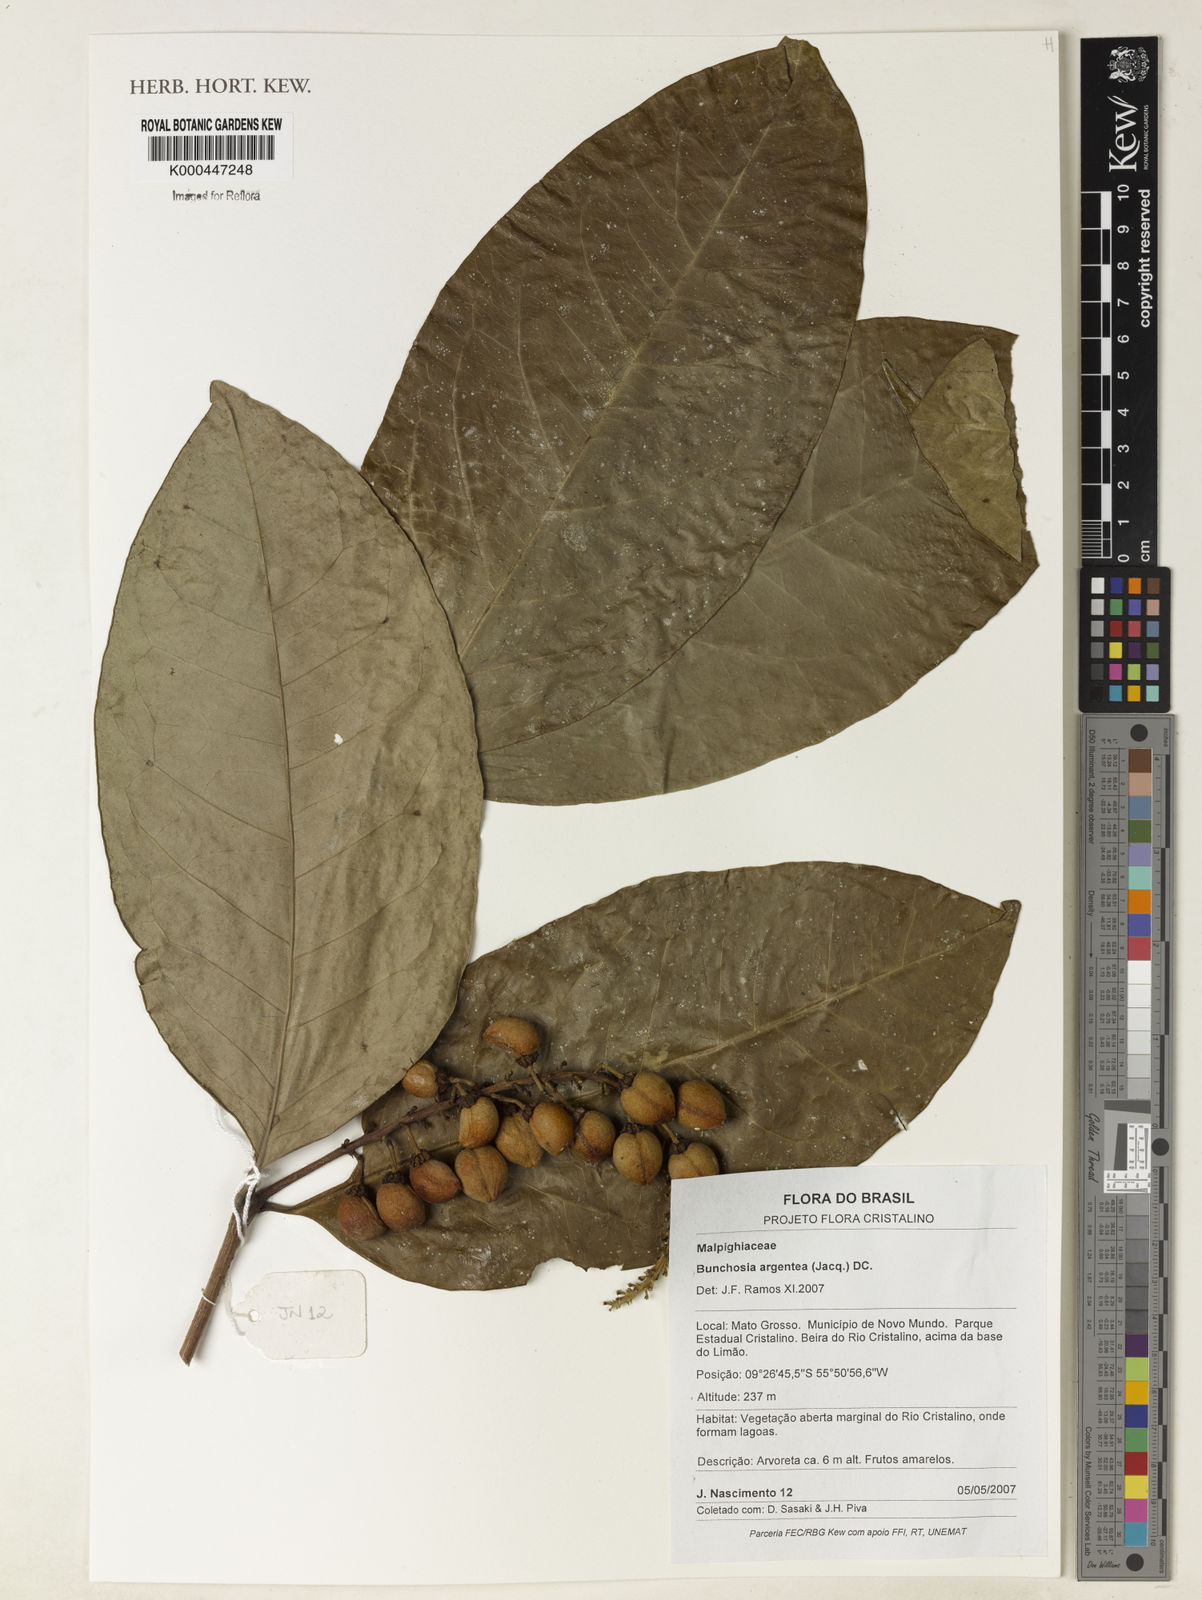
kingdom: Plantae
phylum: Tracheophyta
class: Magnoliopsida
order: Malpighiales
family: Malpighiaceae
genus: Bunchosia
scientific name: Bunchosia argentea
